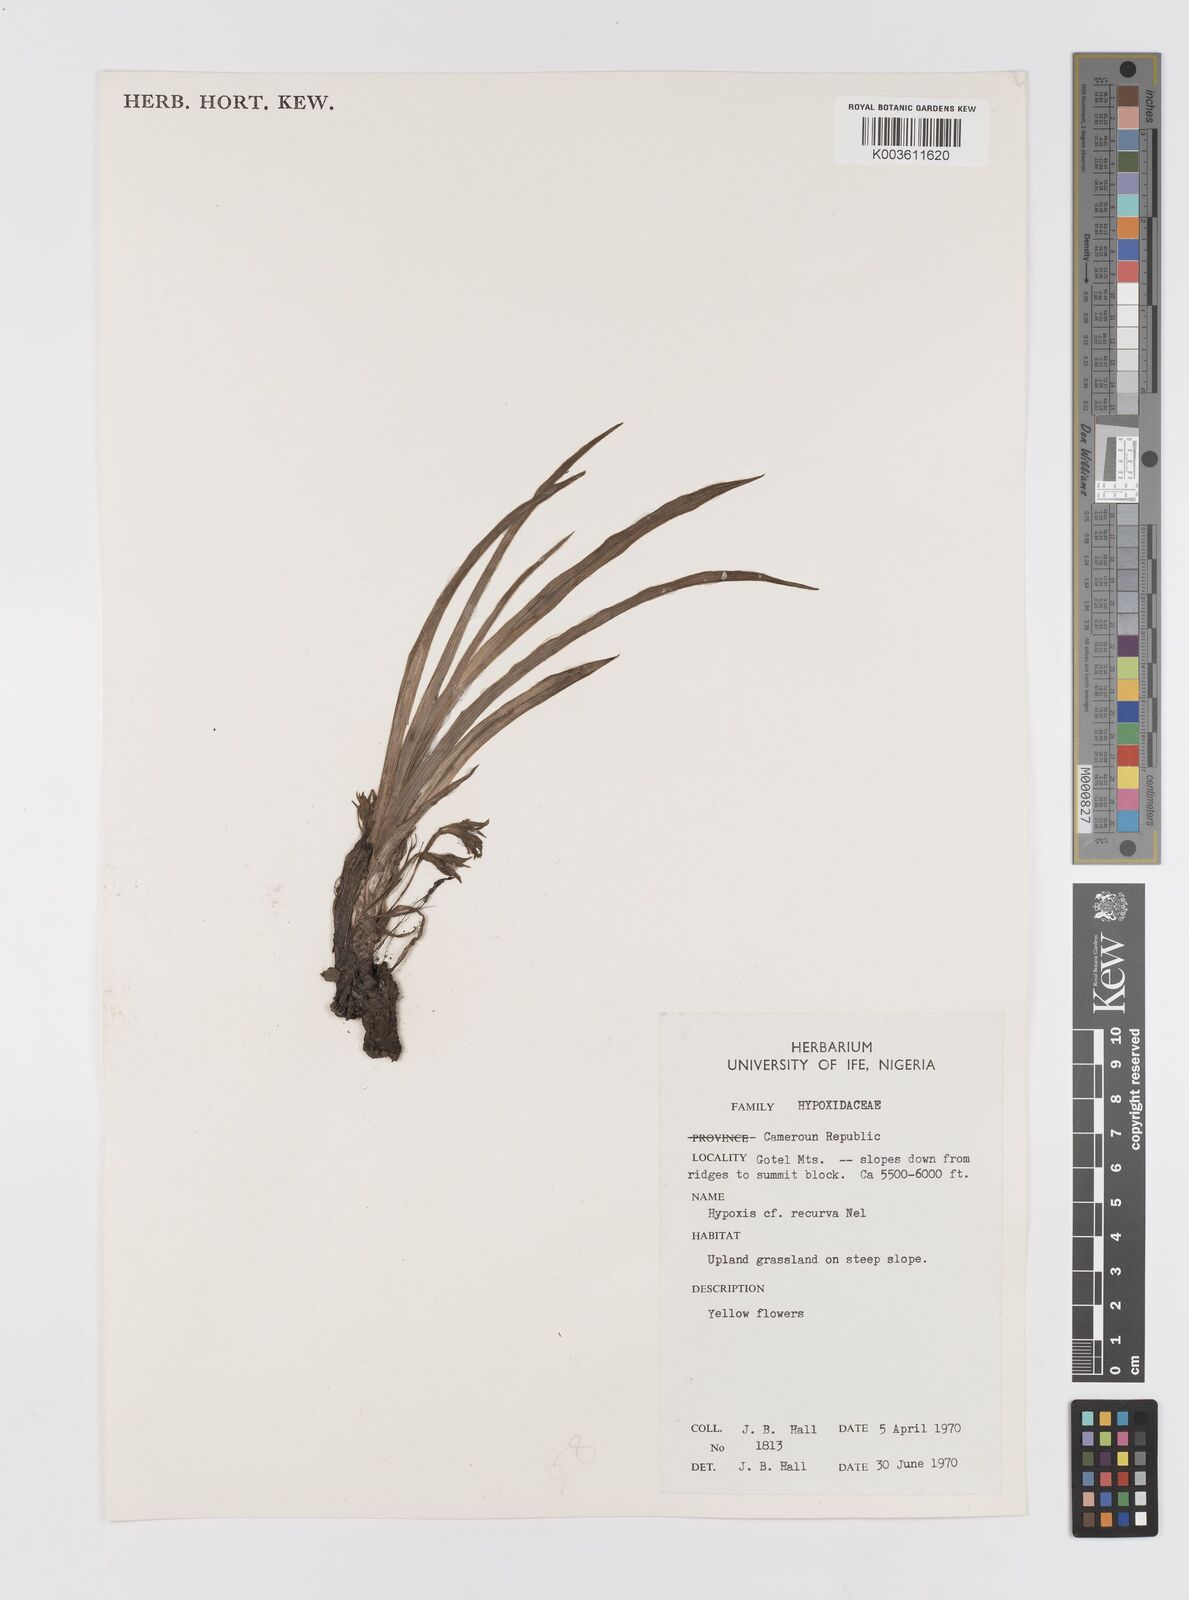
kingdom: Plantae
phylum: Tracheophyta
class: Liliopsida
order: Asparagales
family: Hypoxidaceae
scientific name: Hypoxidaceae
